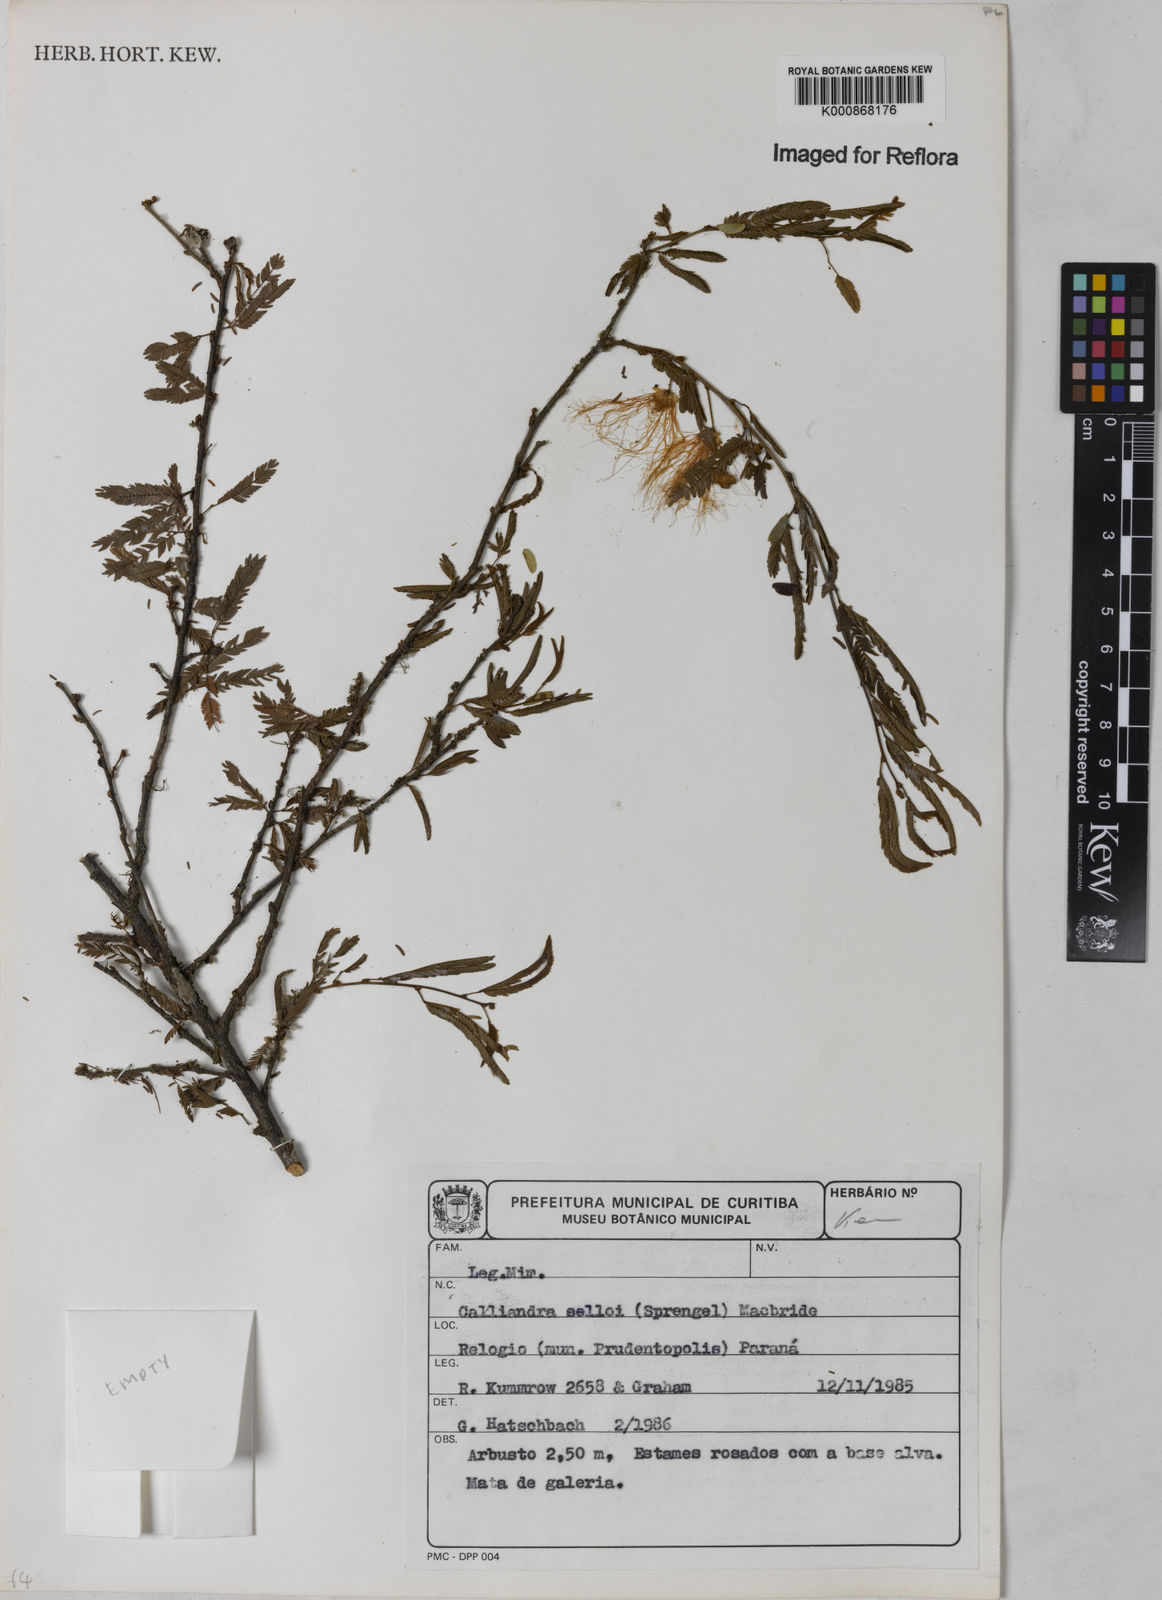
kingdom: Plantae
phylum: Tracheophyta
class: Magnoliopsida
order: Fabales
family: Fabaceae
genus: Calliandra
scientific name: Calliandra selloi
